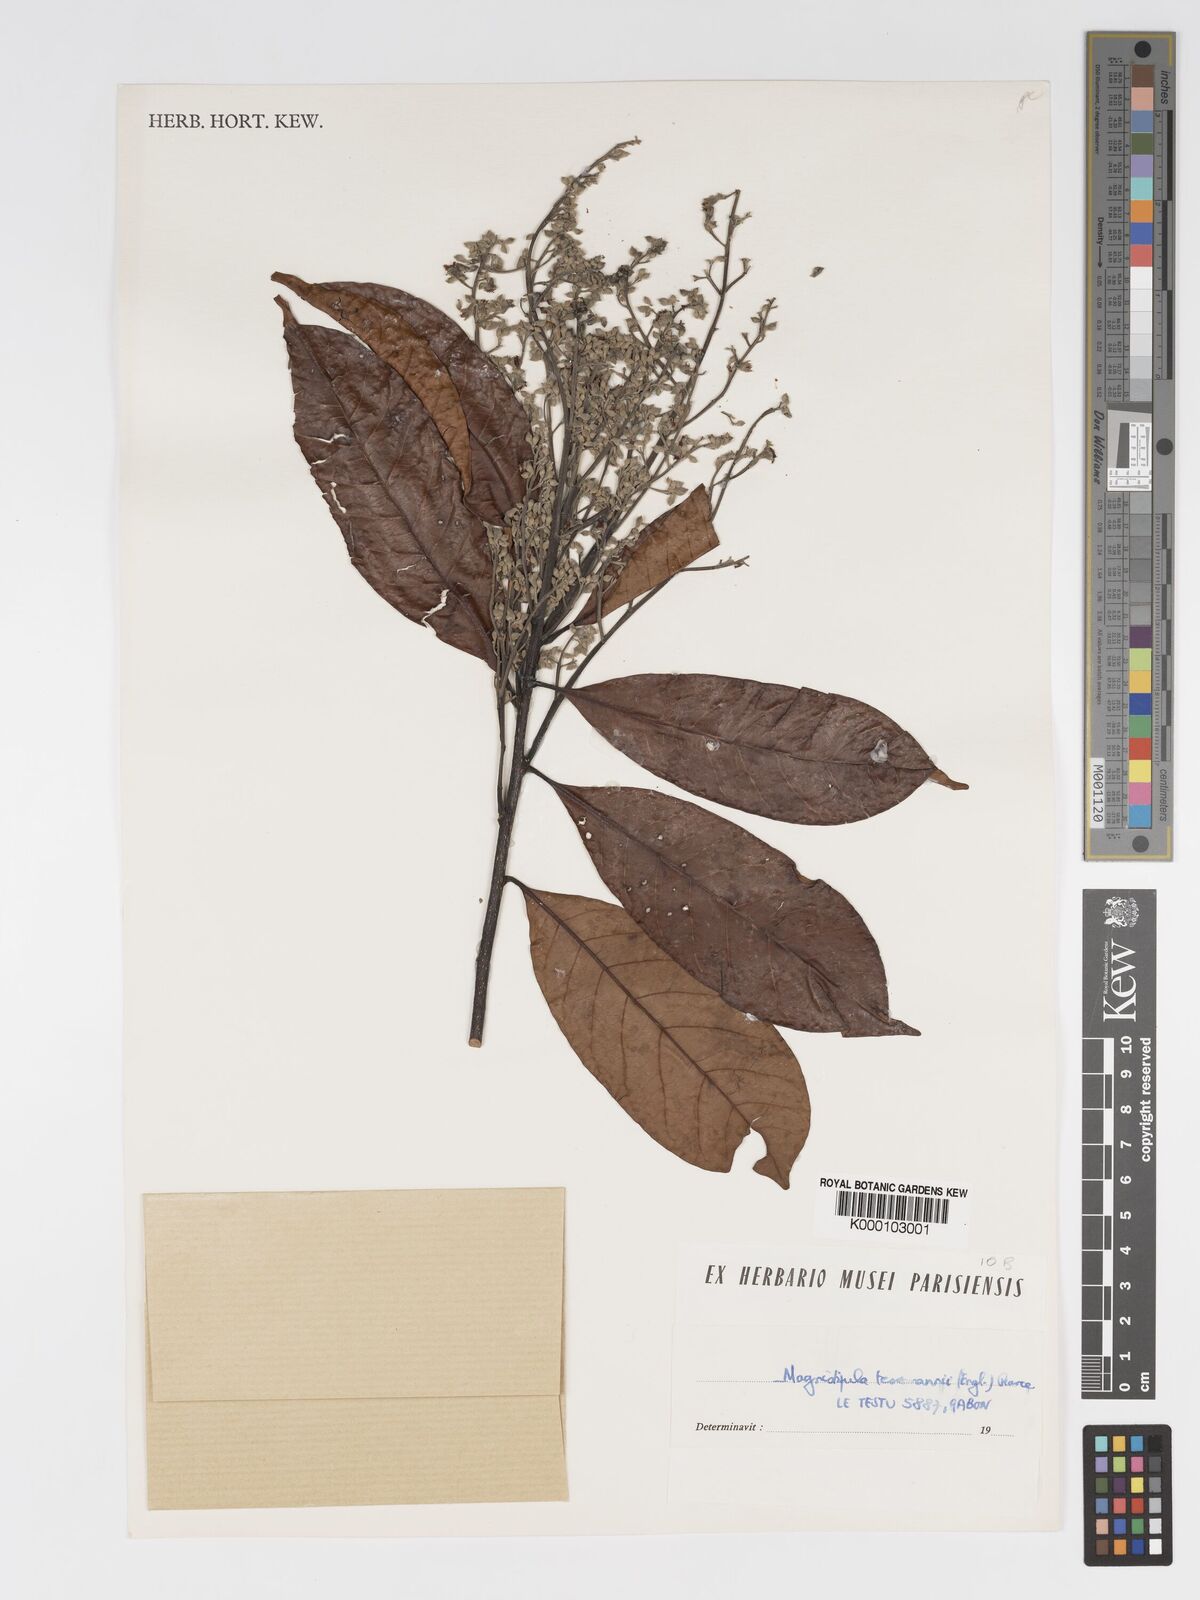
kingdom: Plantae
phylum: Tracheophyta
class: Magnoliopsida
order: Malpighiales
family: Chrysobalanaceae
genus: Magnistipula
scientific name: Magnistipula tessmannii
